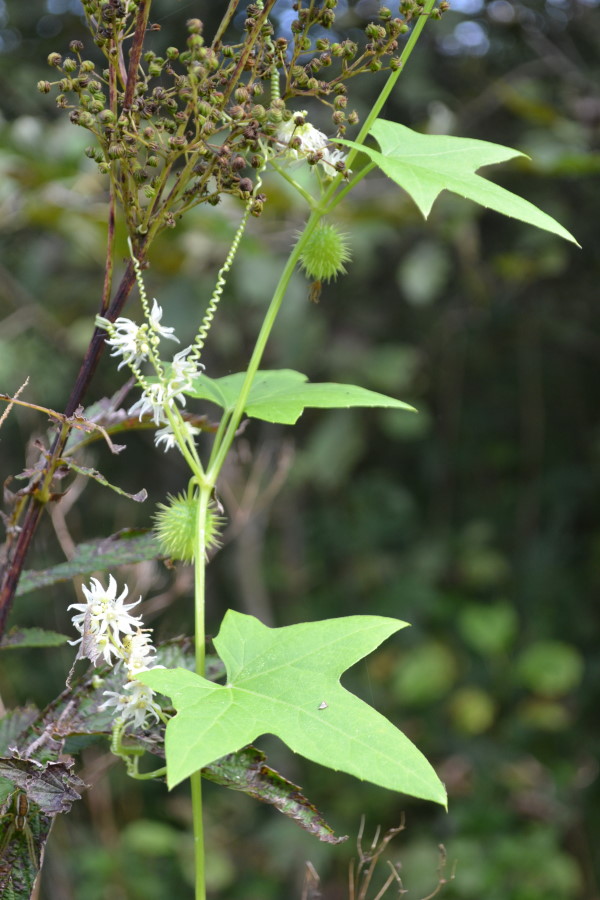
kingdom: Plantae
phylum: Tracheophyta
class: Magnoliopsida
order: Cucurbitales
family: Cucurbitaceae
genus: Echinocystis
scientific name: Echinocystis lobata
